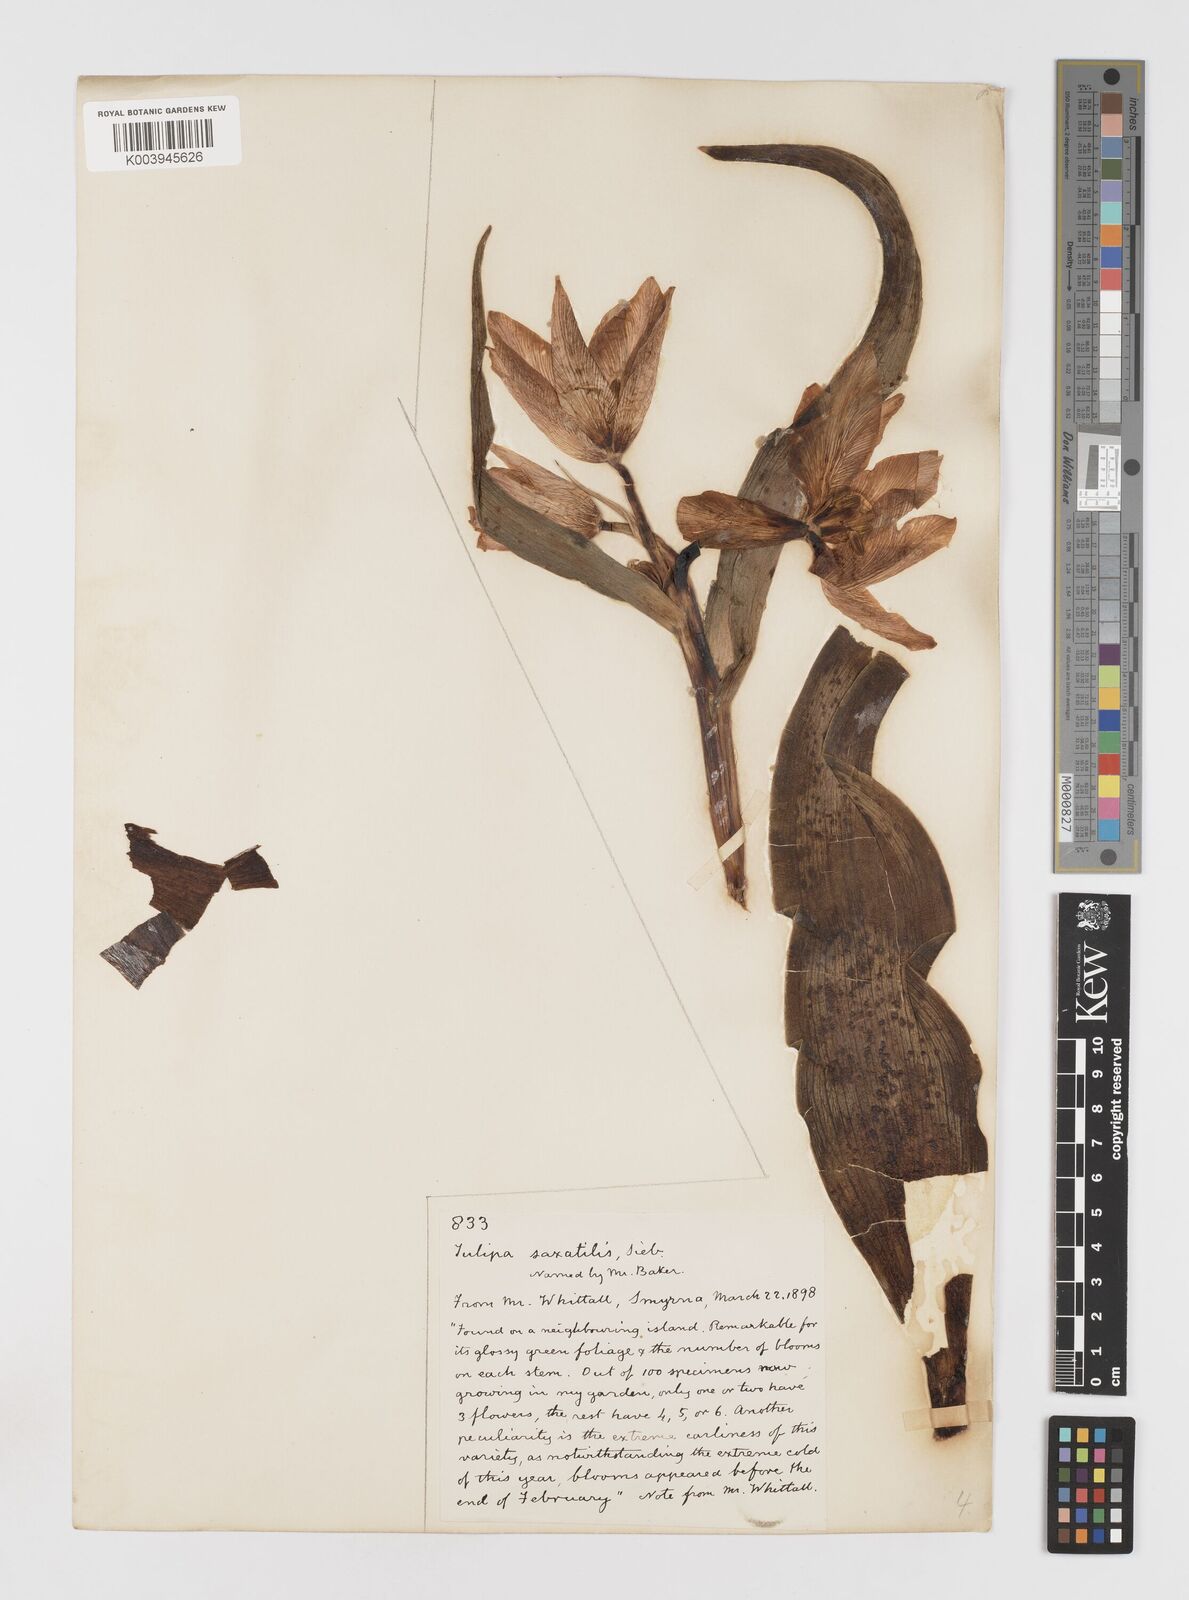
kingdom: Plantae
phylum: Tracheophyta
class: Liliopsida
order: Liliales
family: Liliaceae
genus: Tulipa
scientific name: Tulipa saxatilis
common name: Cretan tulip
